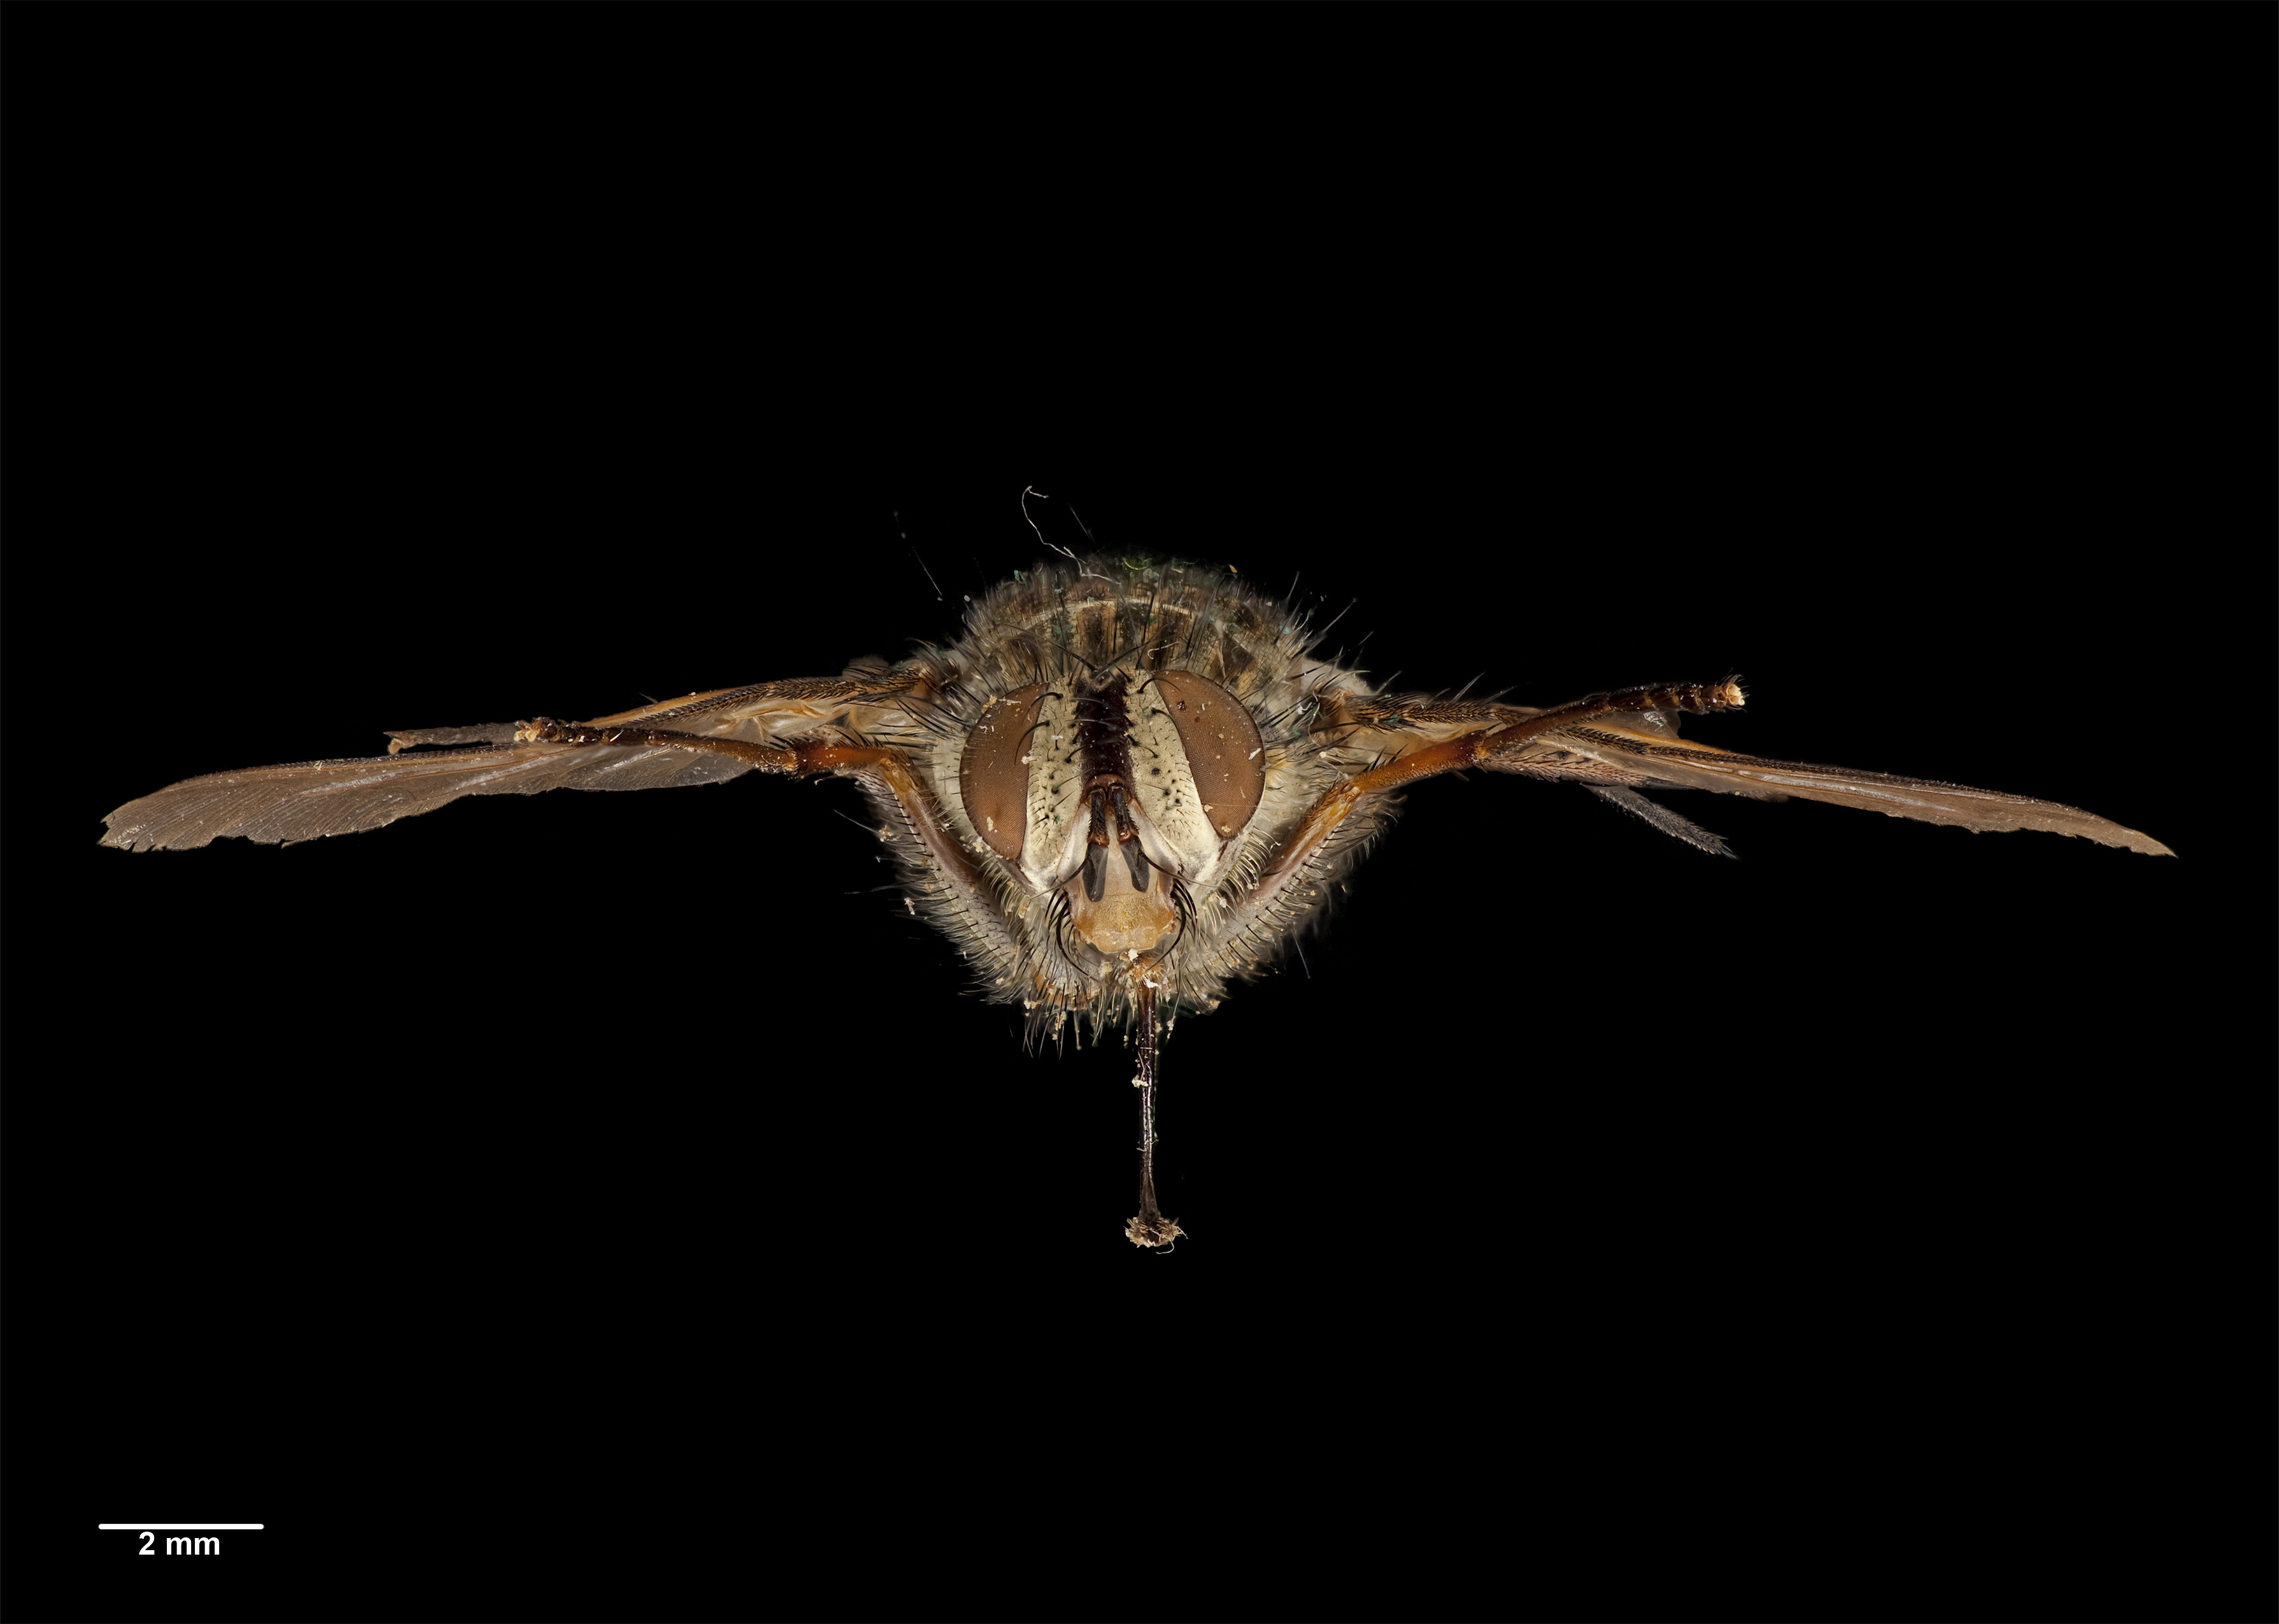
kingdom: Animalia
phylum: Arthropoda
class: Insecta
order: Diptera
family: Tachinidae
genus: Protohystricia
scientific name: Protohystricia huttoni
